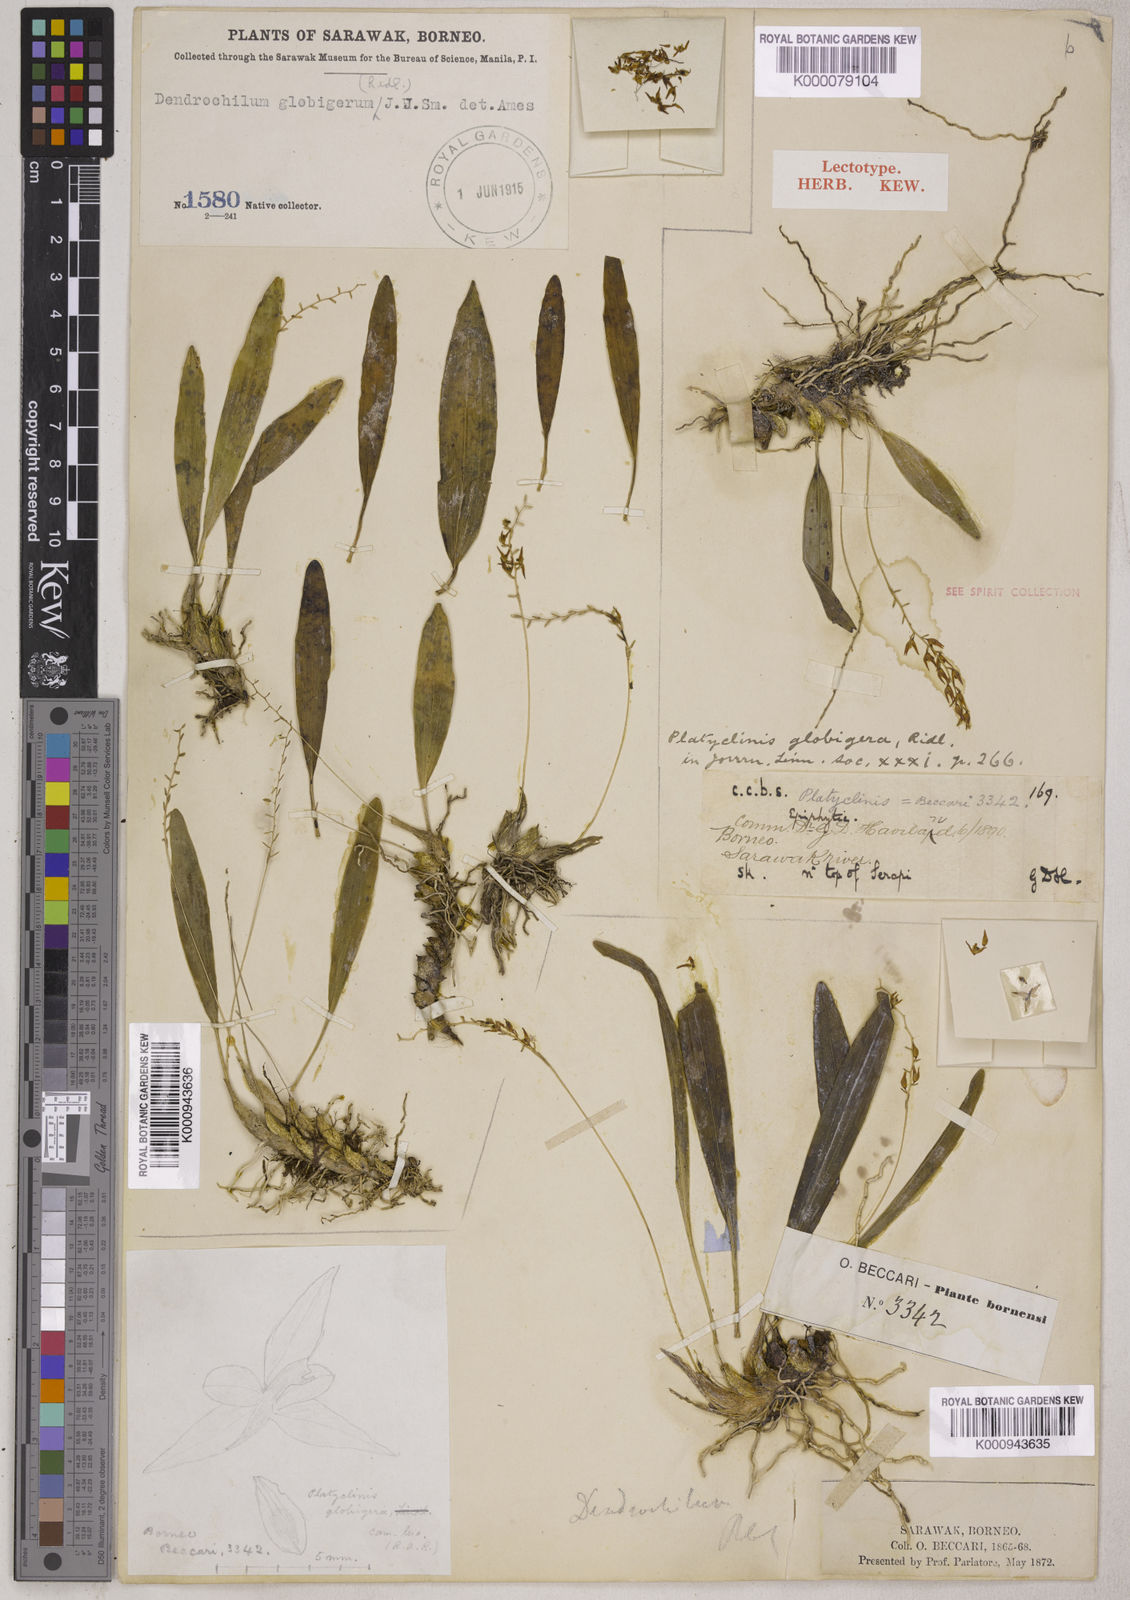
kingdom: Plantae
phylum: Tracheophyta
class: Liliopsida
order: Asparagales
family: Orchidaceae
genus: Coelogyne
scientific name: Coelogyne globigera
